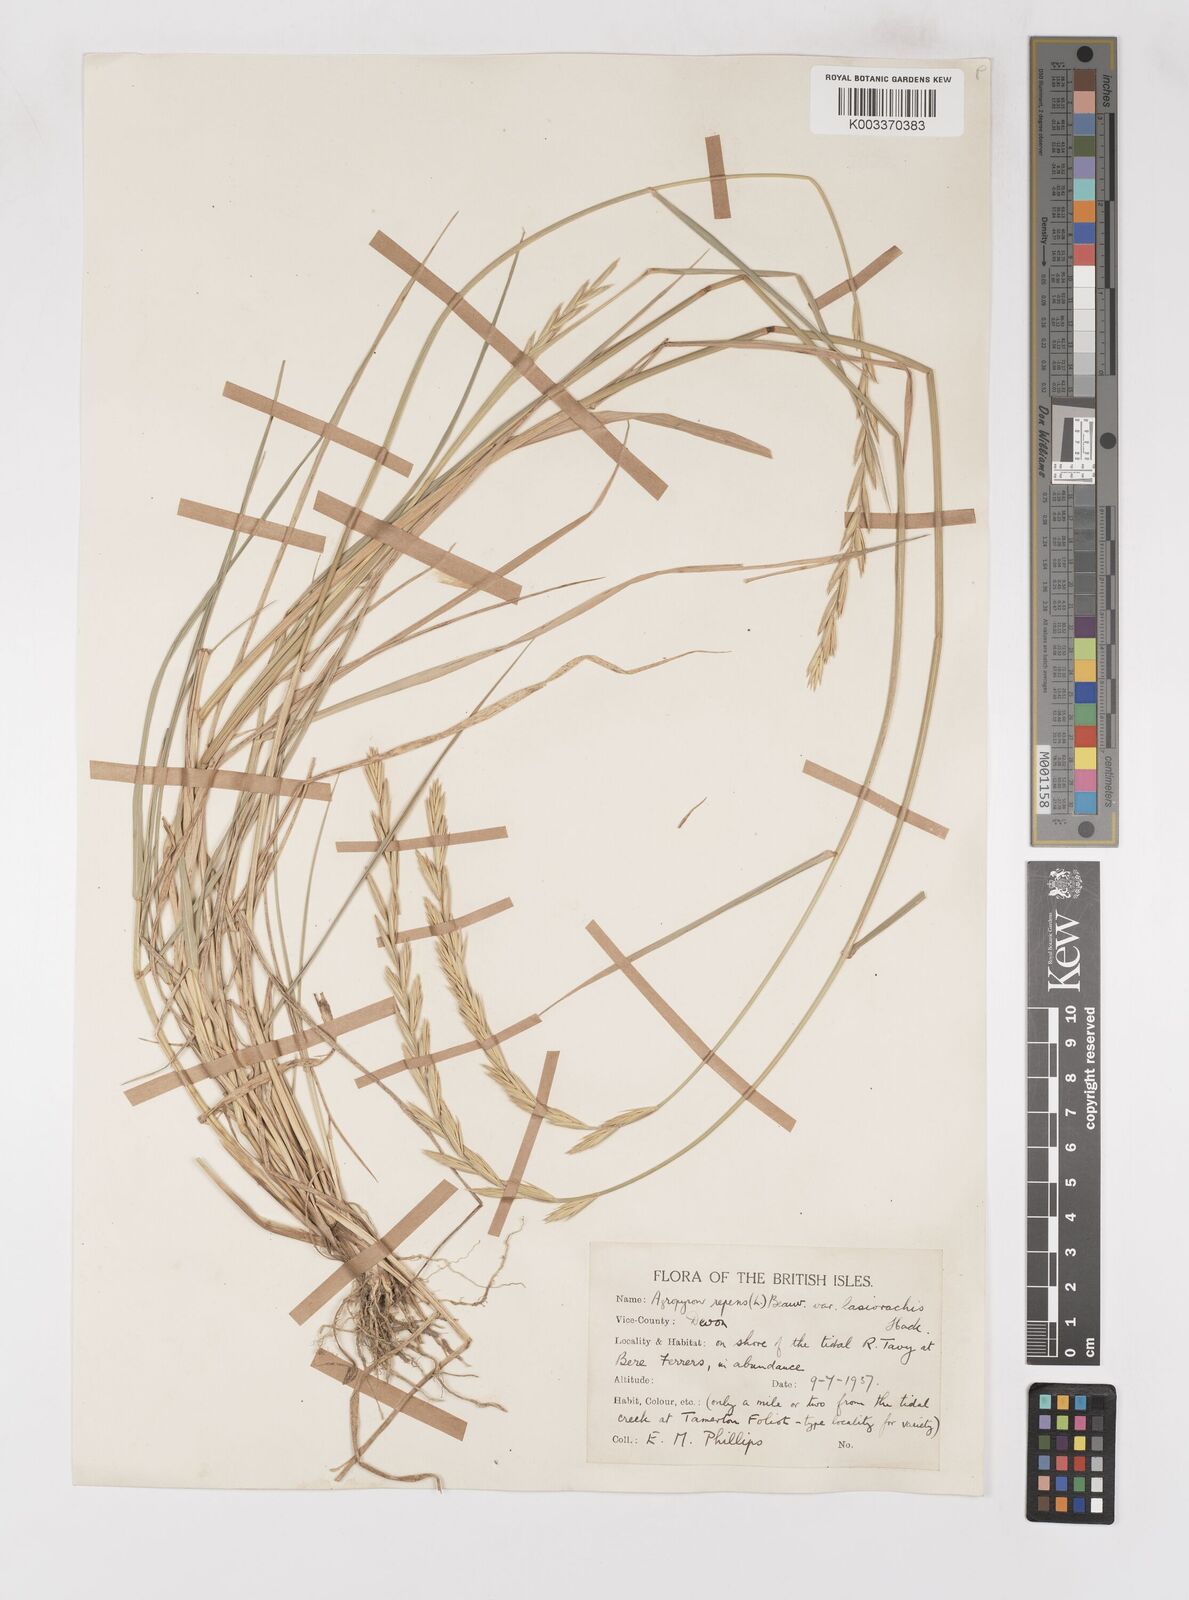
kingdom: Plantae
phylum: Tracheophyta
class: Liliopsida
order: Poales
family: Poaceae
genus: Elymus
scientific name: Elymus oliveri
